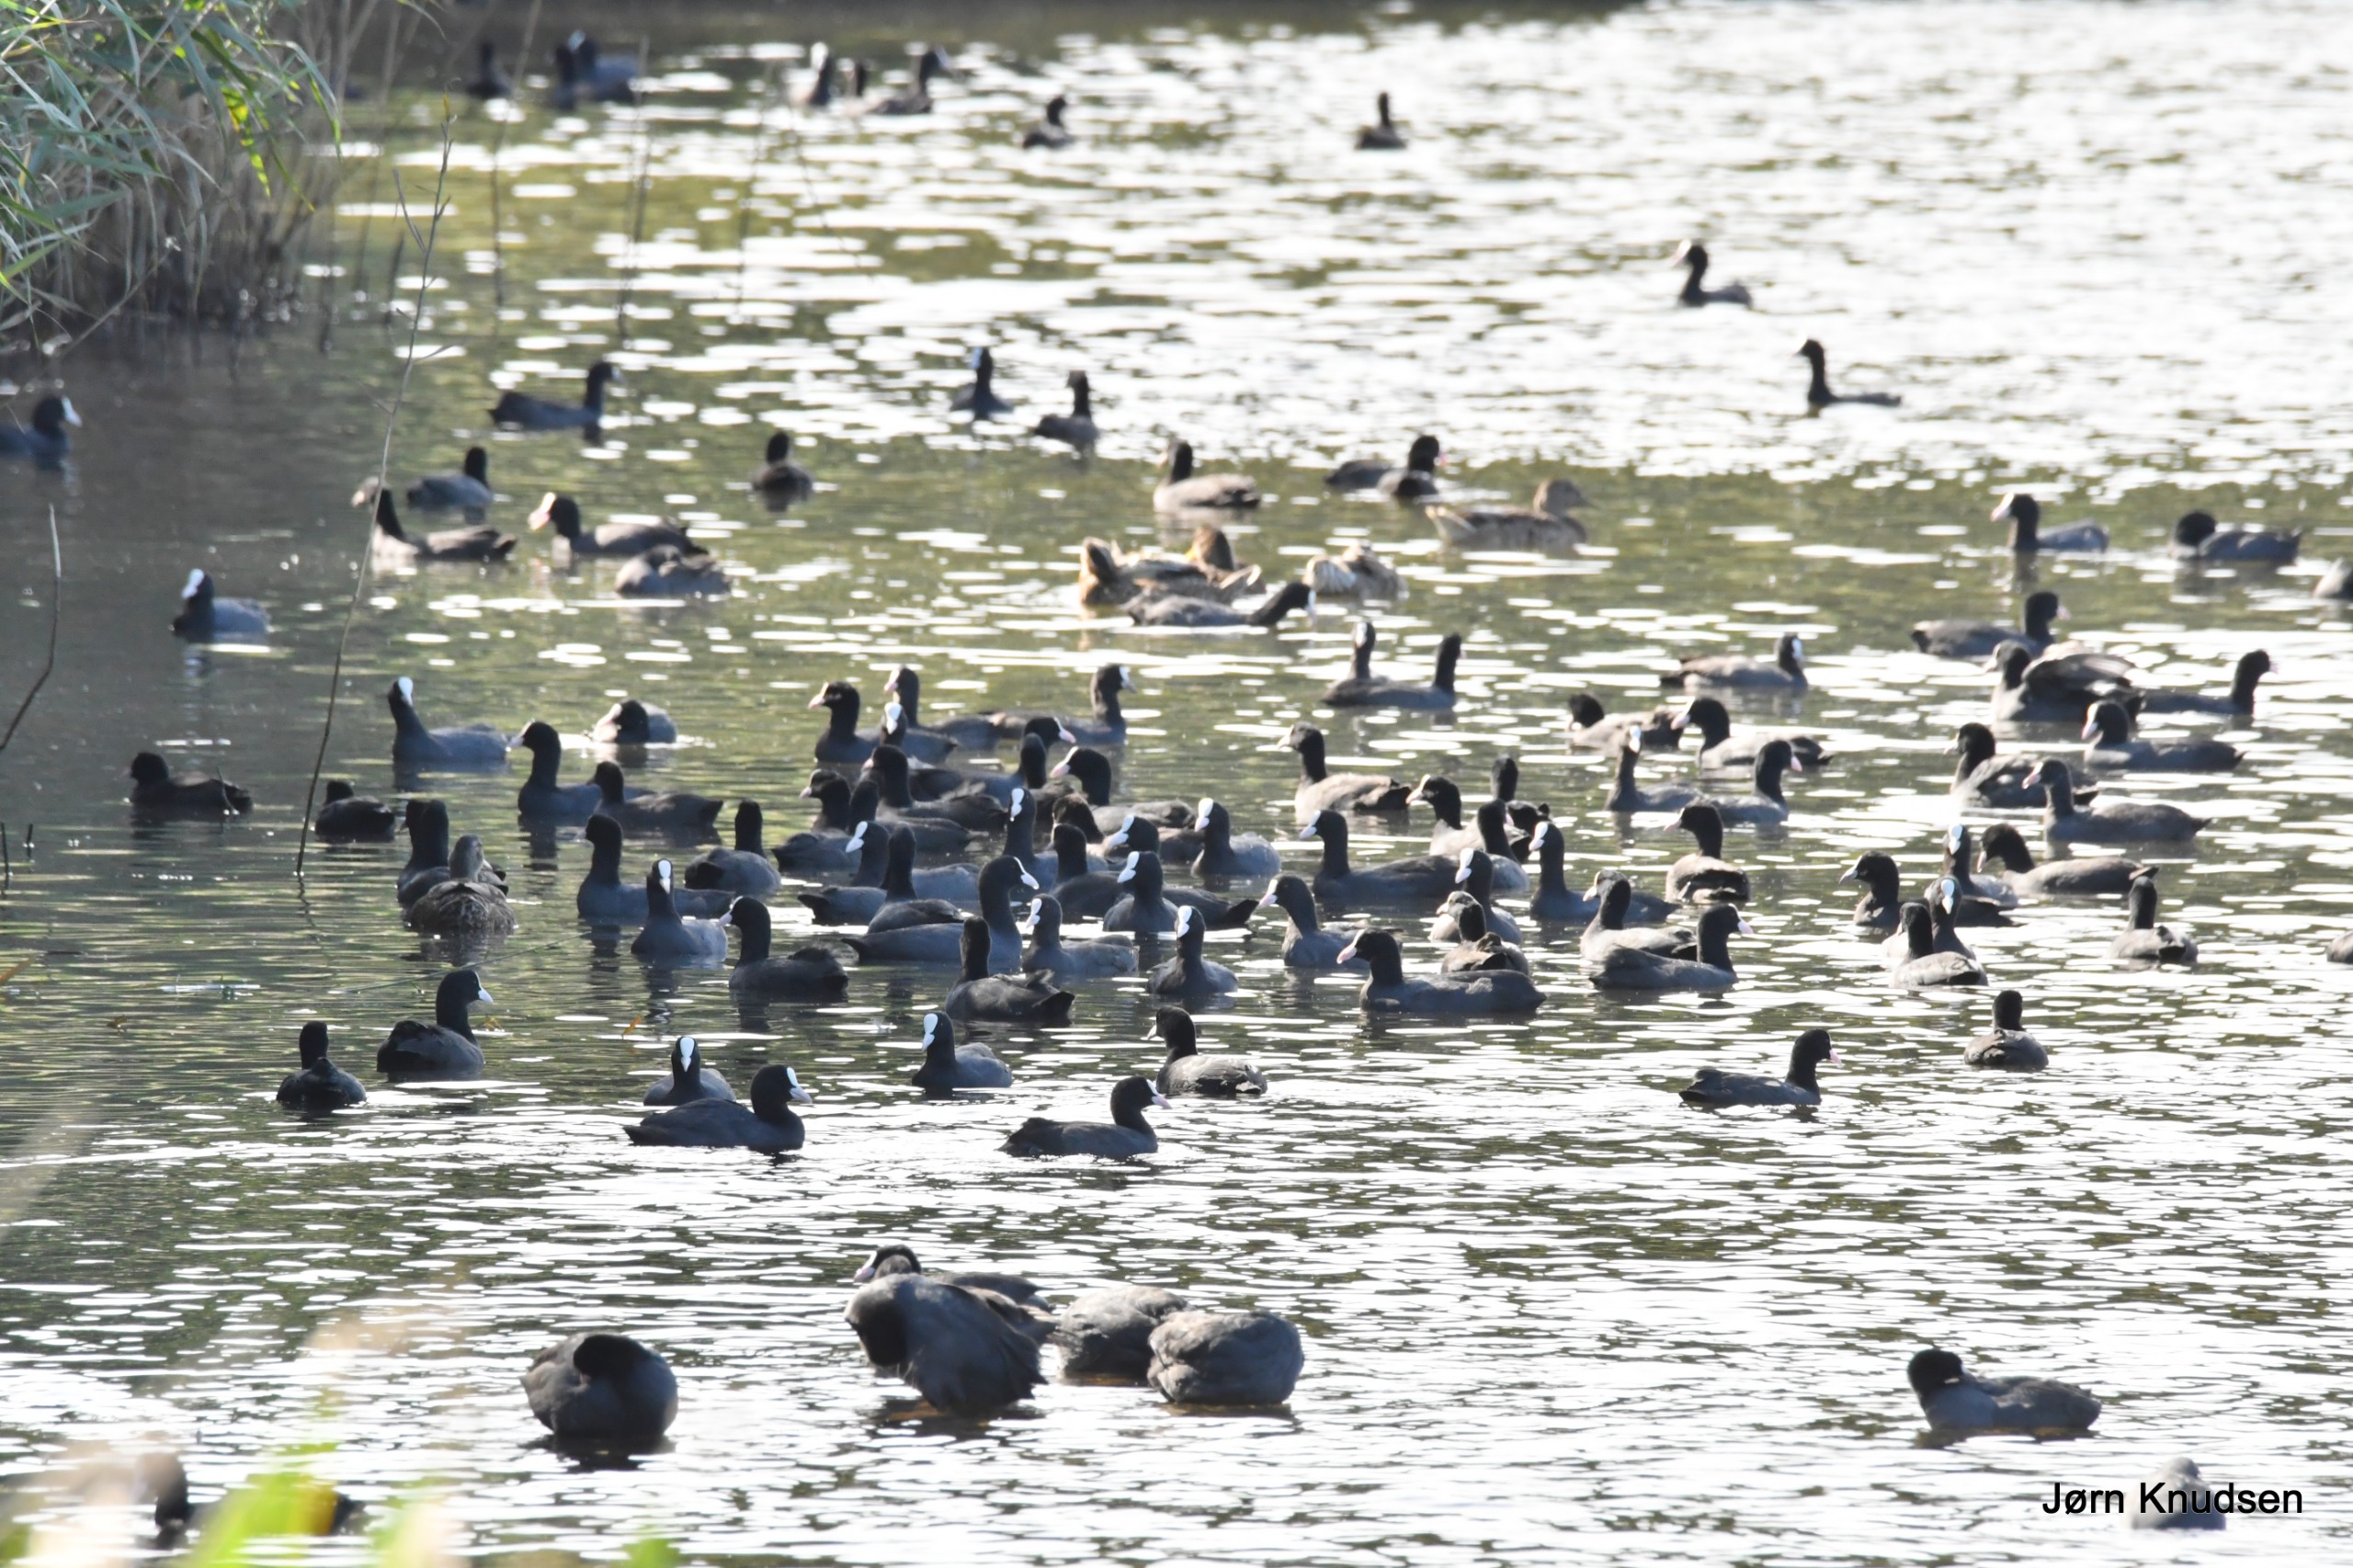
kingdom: Animalia
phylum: Chordata
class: Aves
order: Gruiformes
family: Rallidae
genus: Fulica
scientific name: Fulica atra
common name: Blishøne
